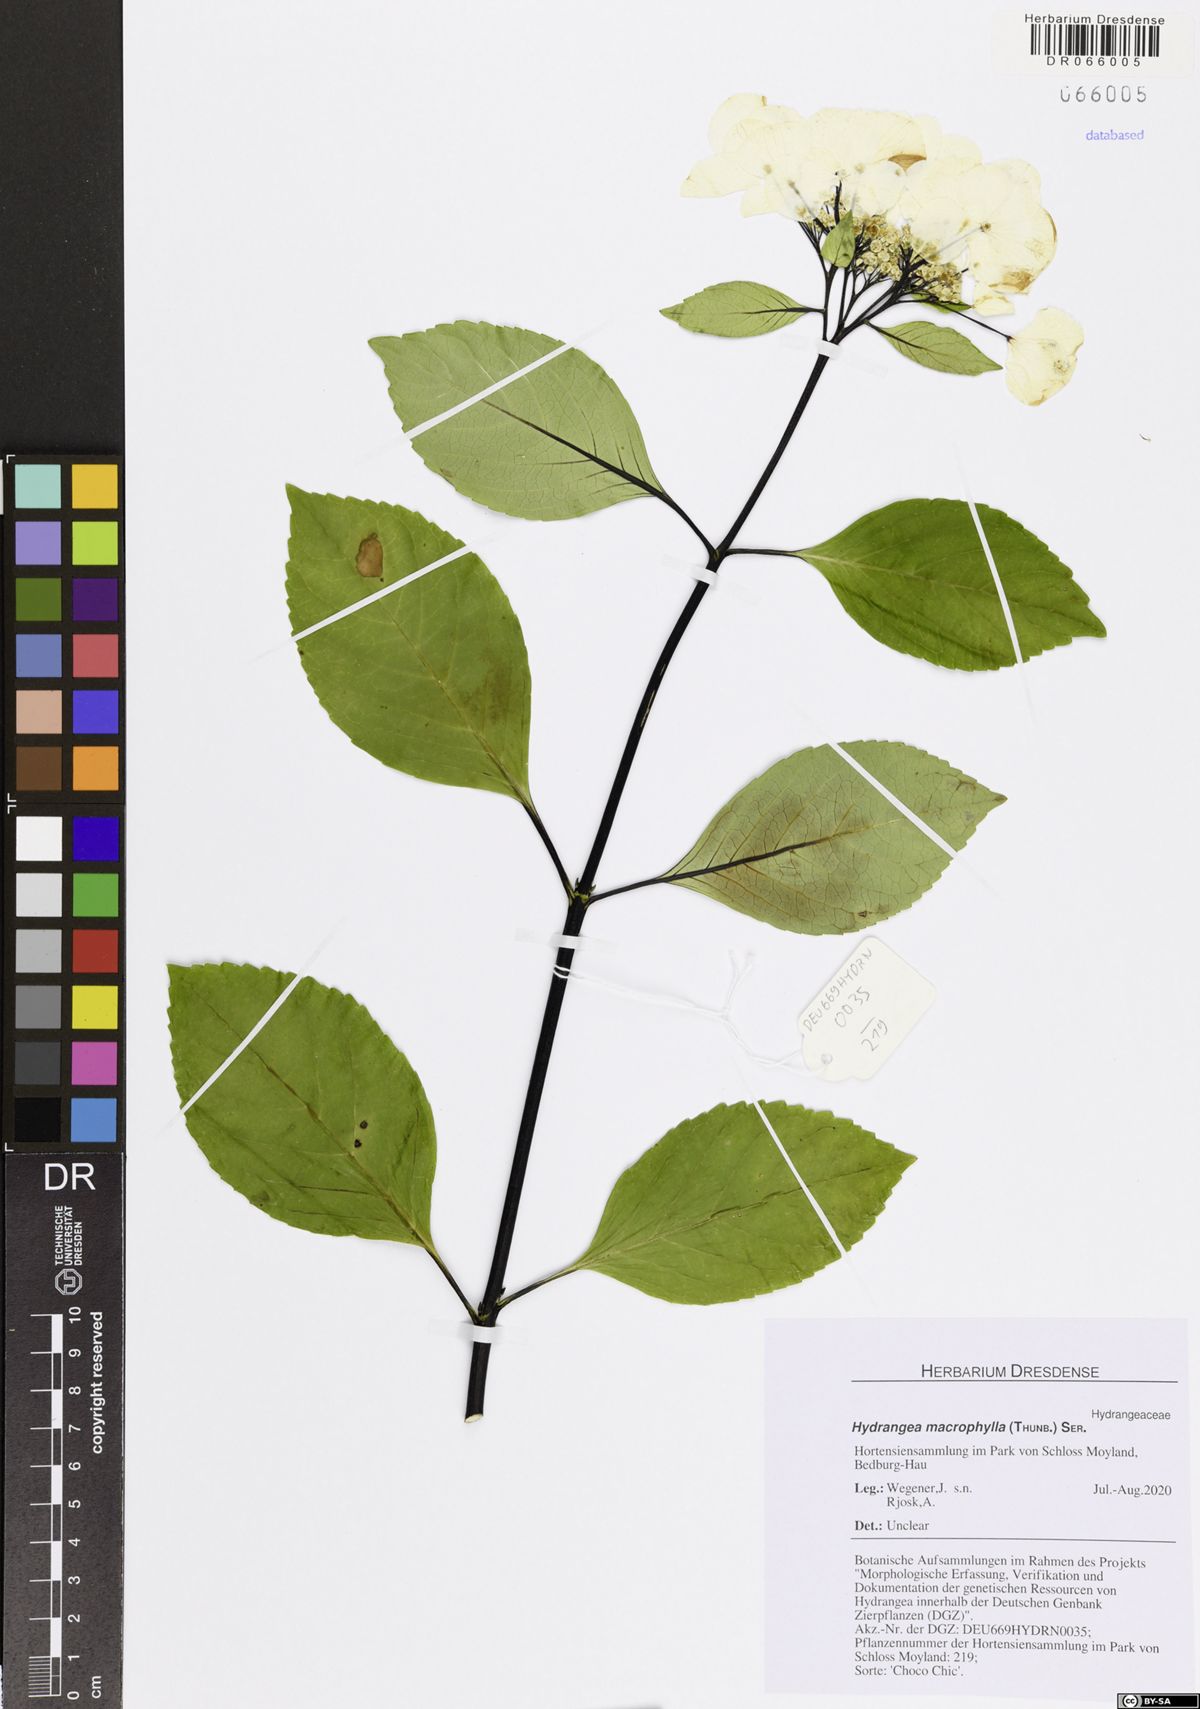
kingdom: Plantae
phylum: Tracheophyta
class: Magnoliopsida
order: Cornales
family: Hydrangeaceae
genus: Hydrangea
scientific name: Hydrangea macrophylla
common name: Hydrangea
